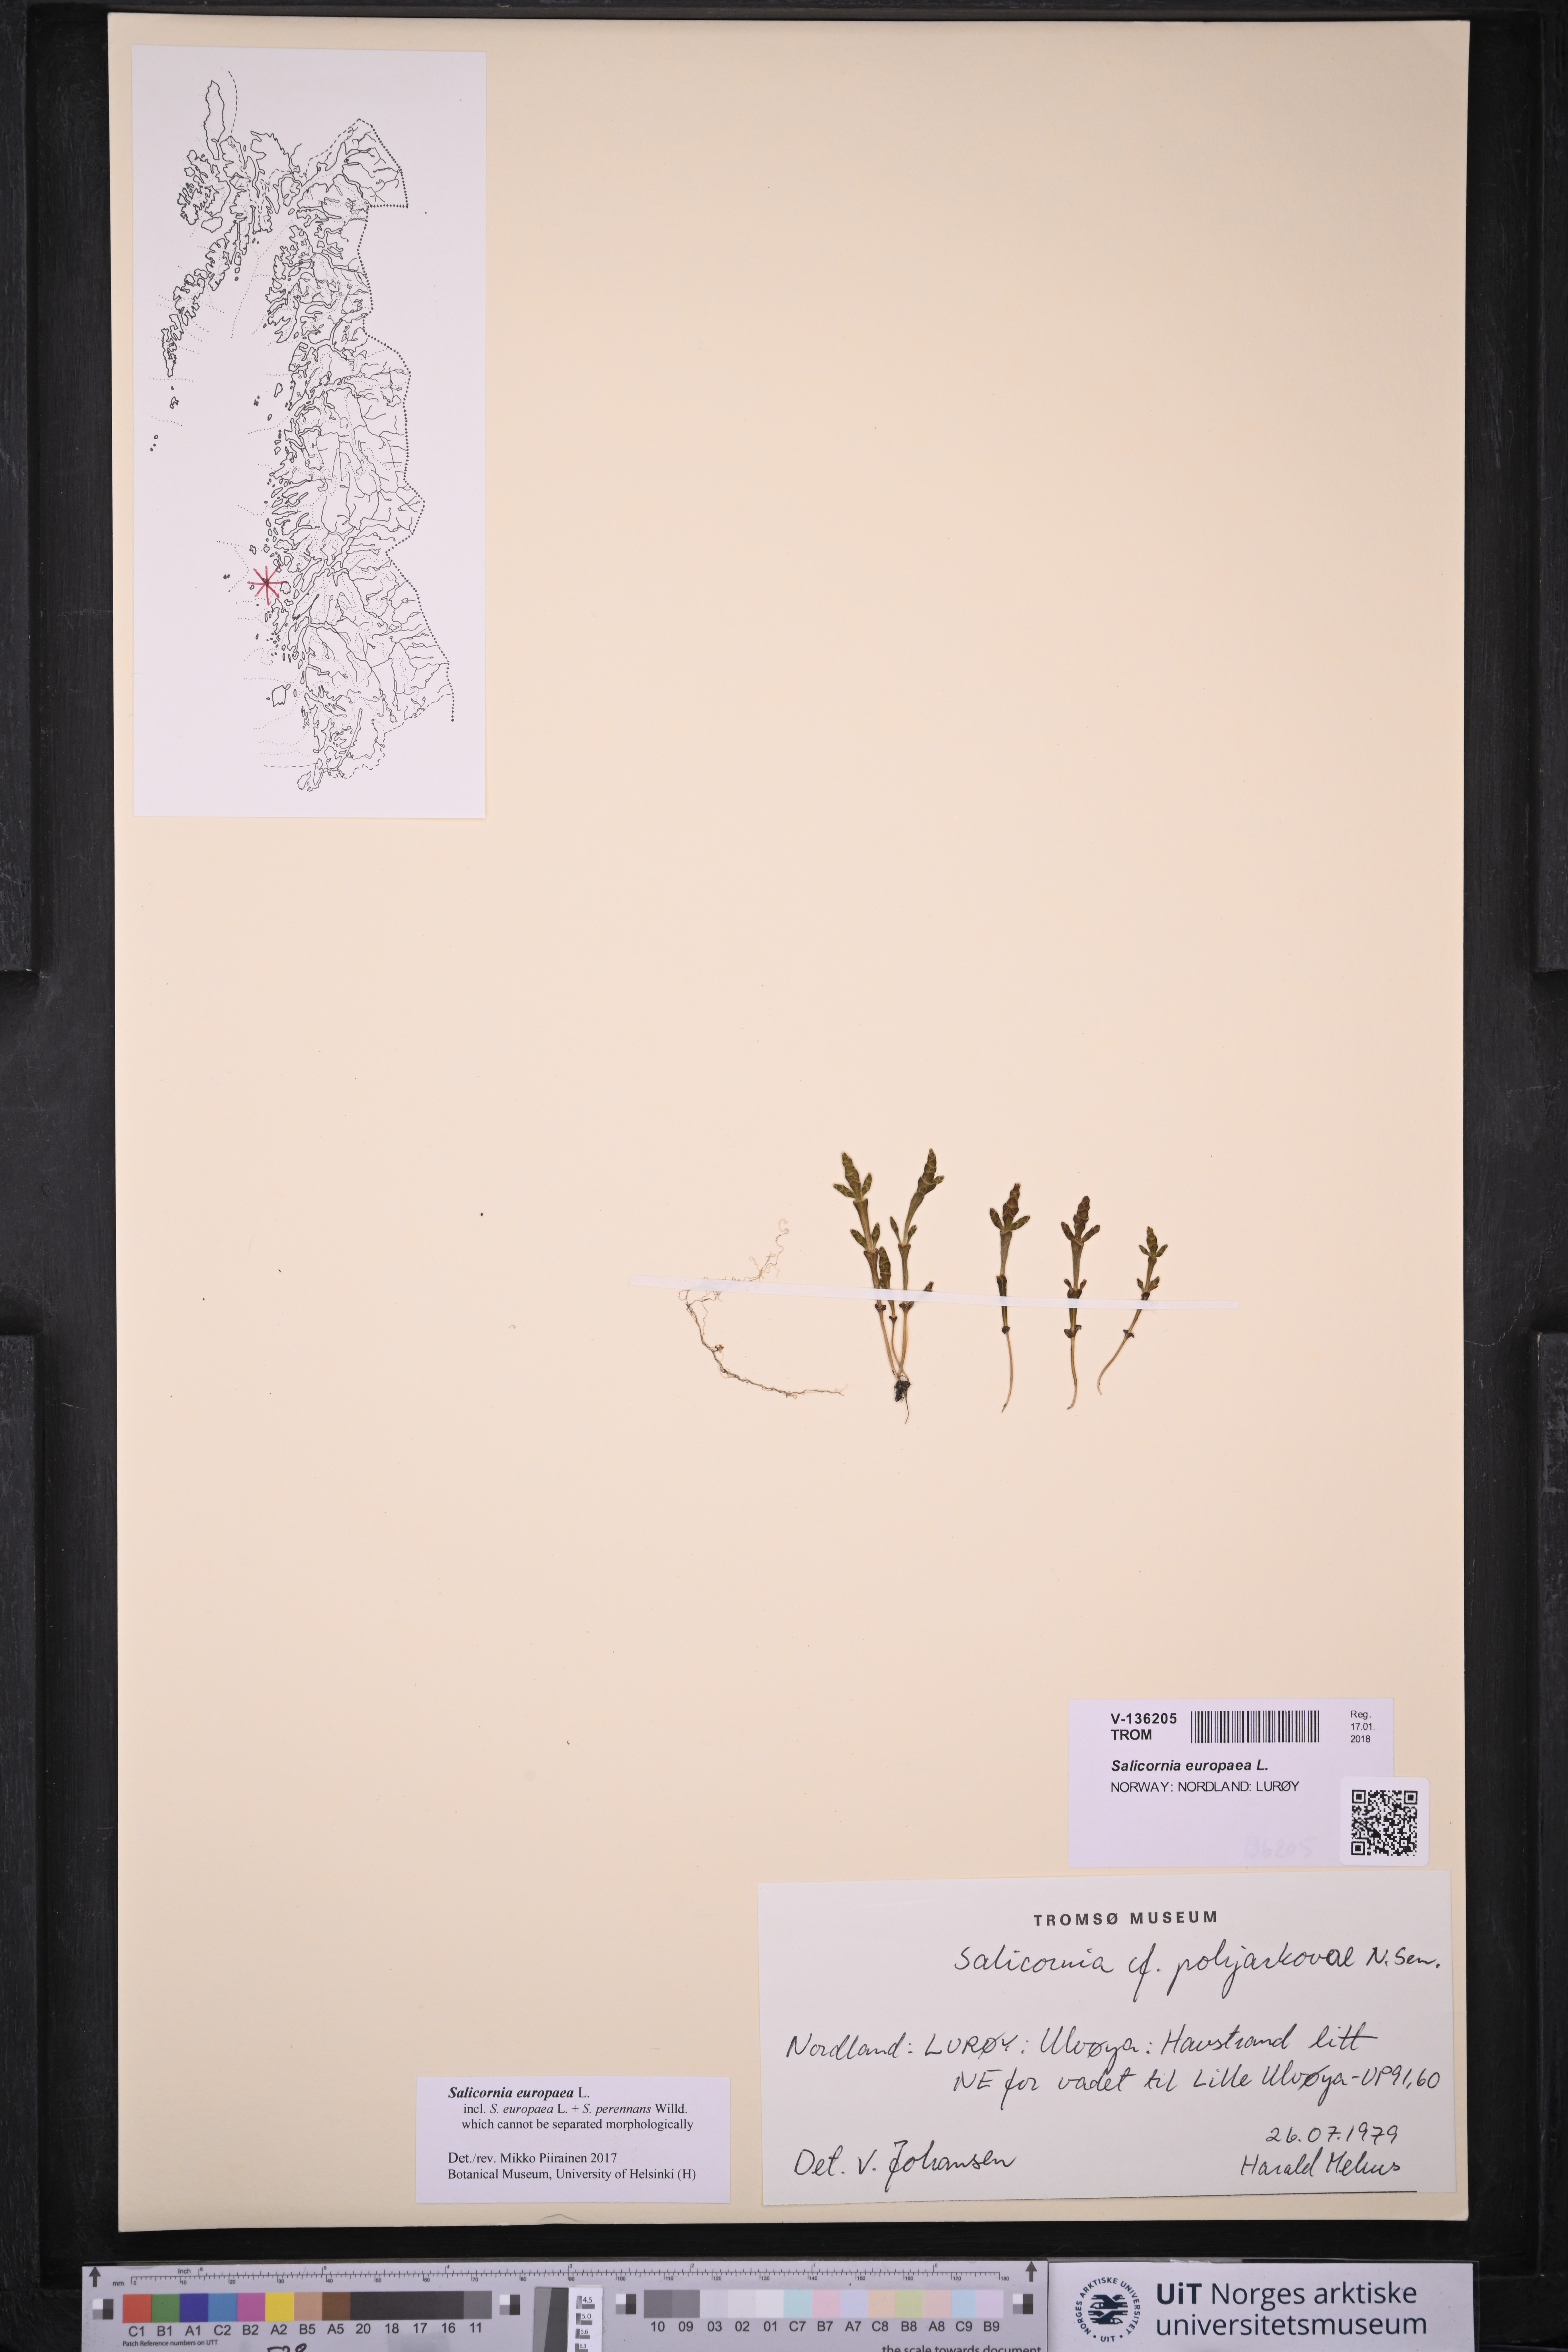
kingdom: Plantae
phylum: Tracheophyta
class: Magnoliopsida
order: Caryophyllales
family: Amaranthaceae
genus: Salicornia
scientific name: Salicornia europaea
